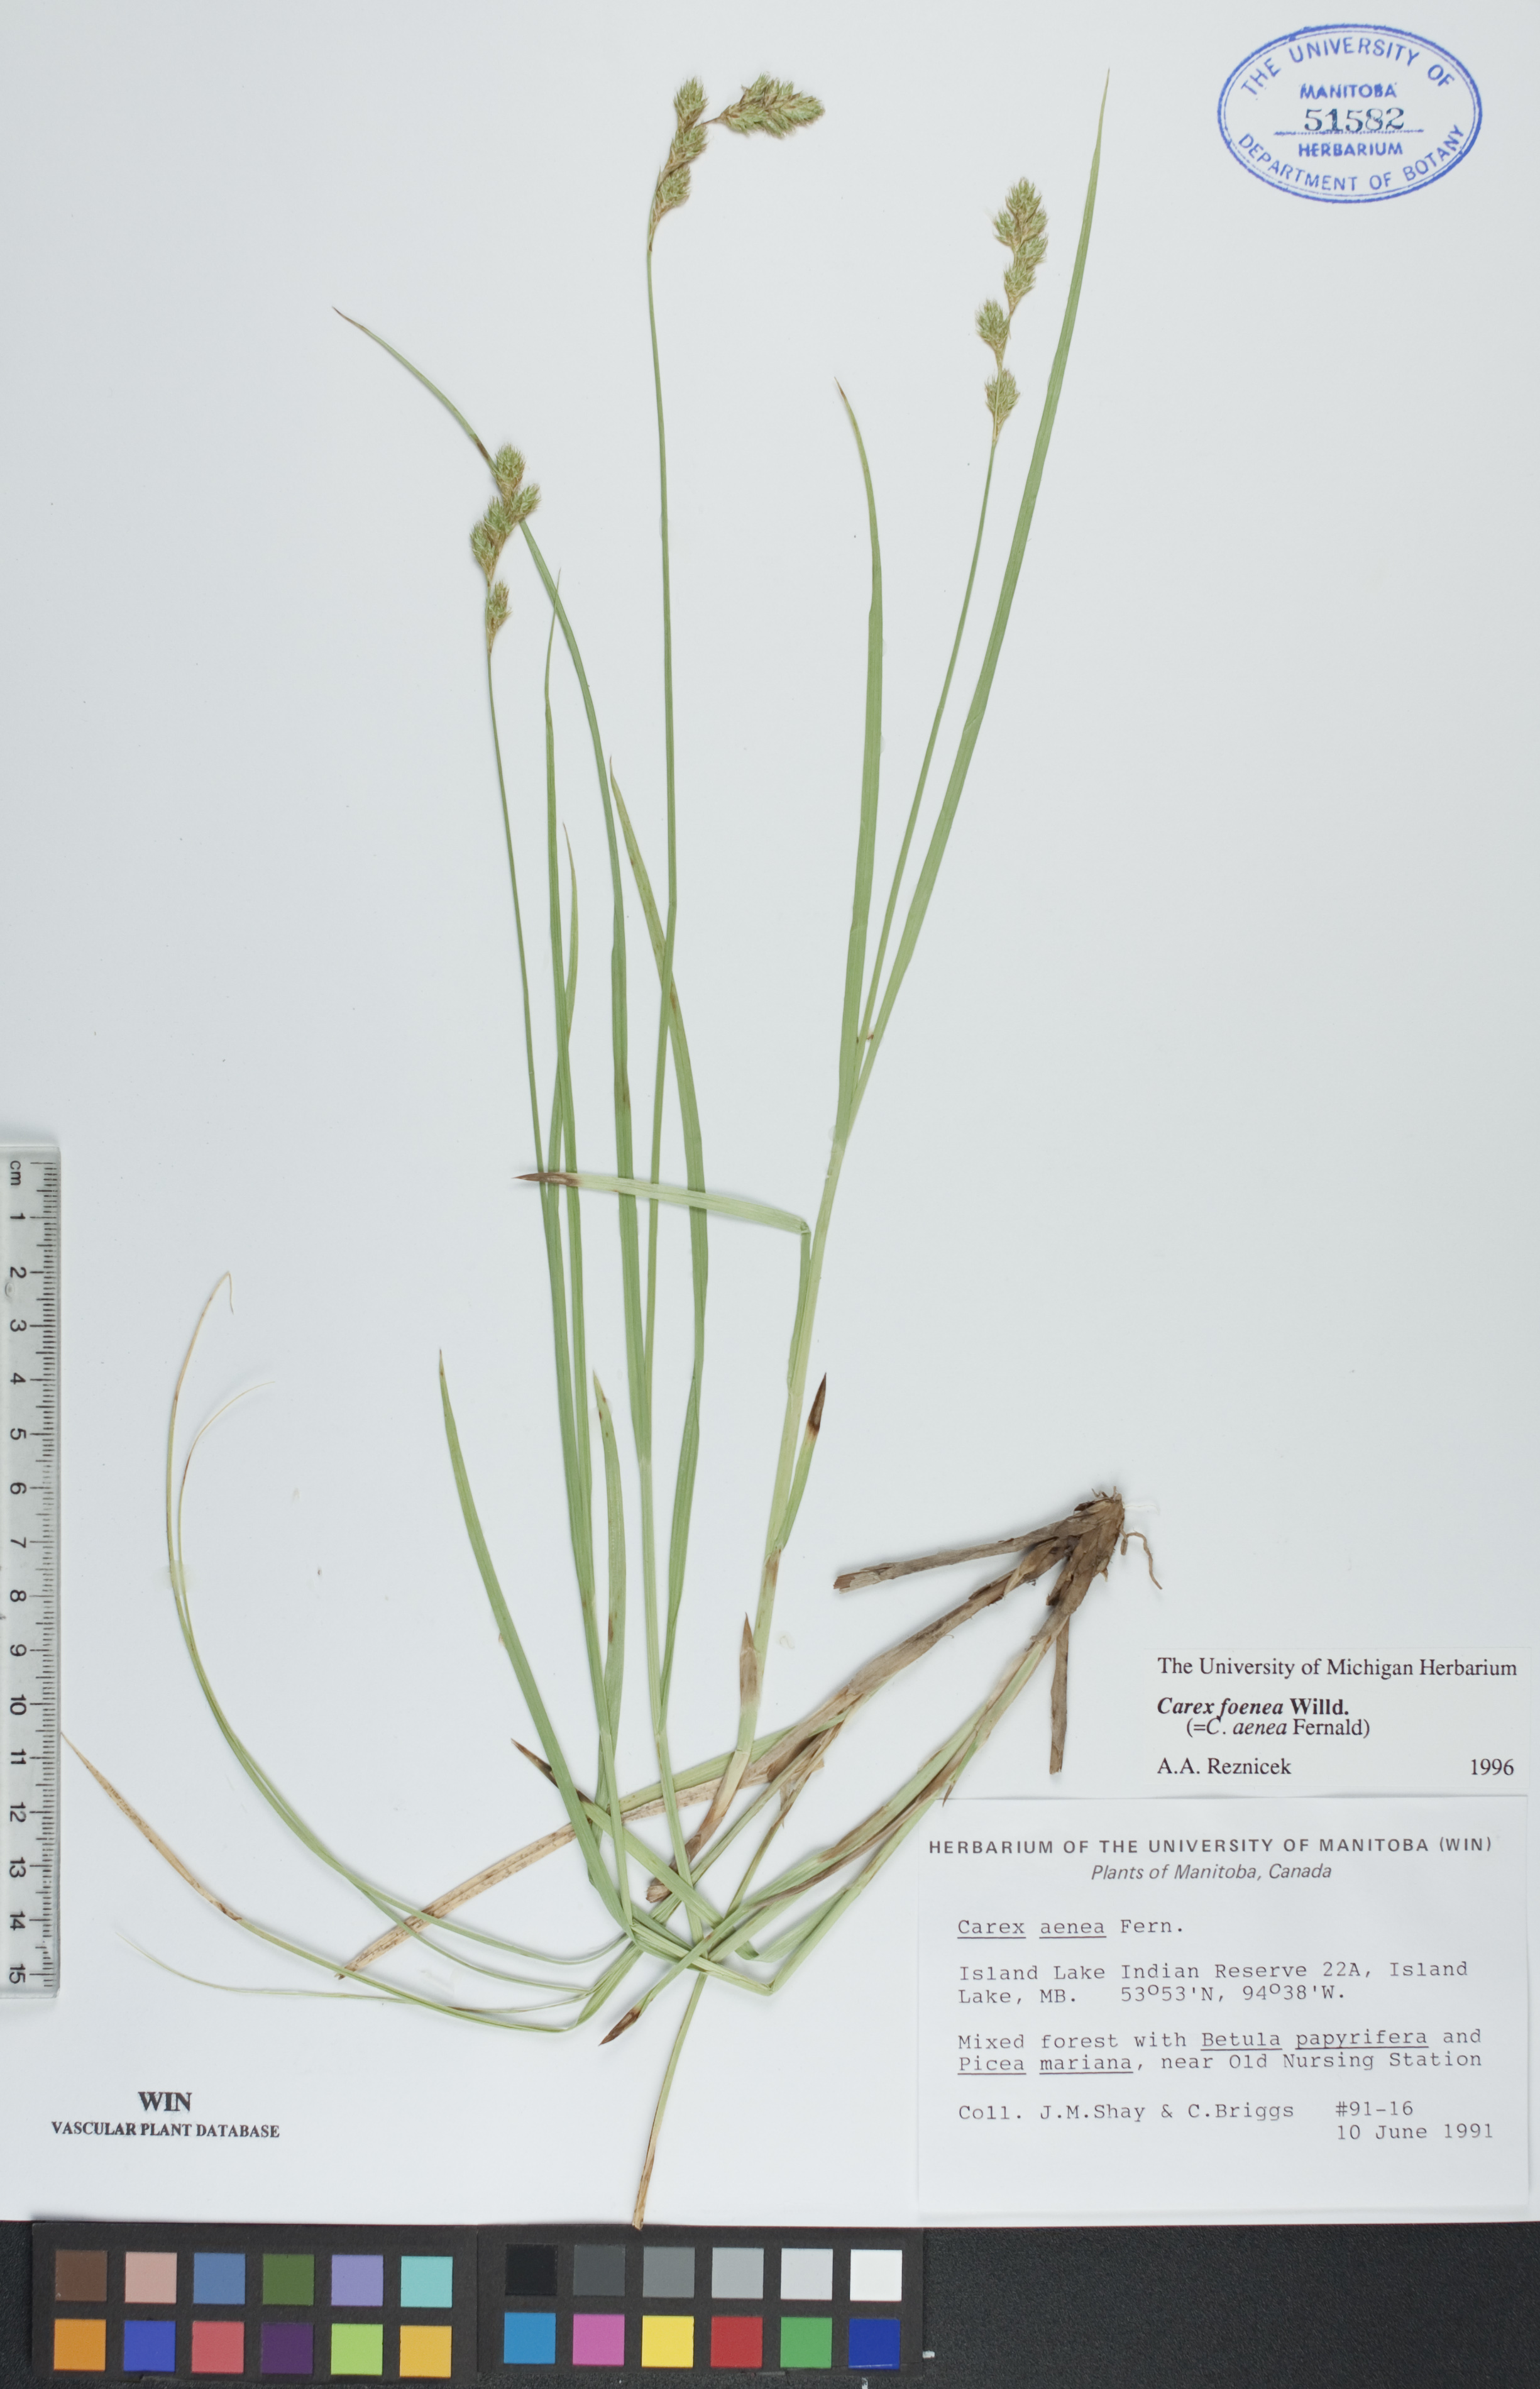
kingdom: Plantae
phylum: Tracheophyta
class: Liliopsida
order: Poales
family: Cyperaceae
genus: Carex
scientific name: Carex foenea
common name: Bronze sedge
